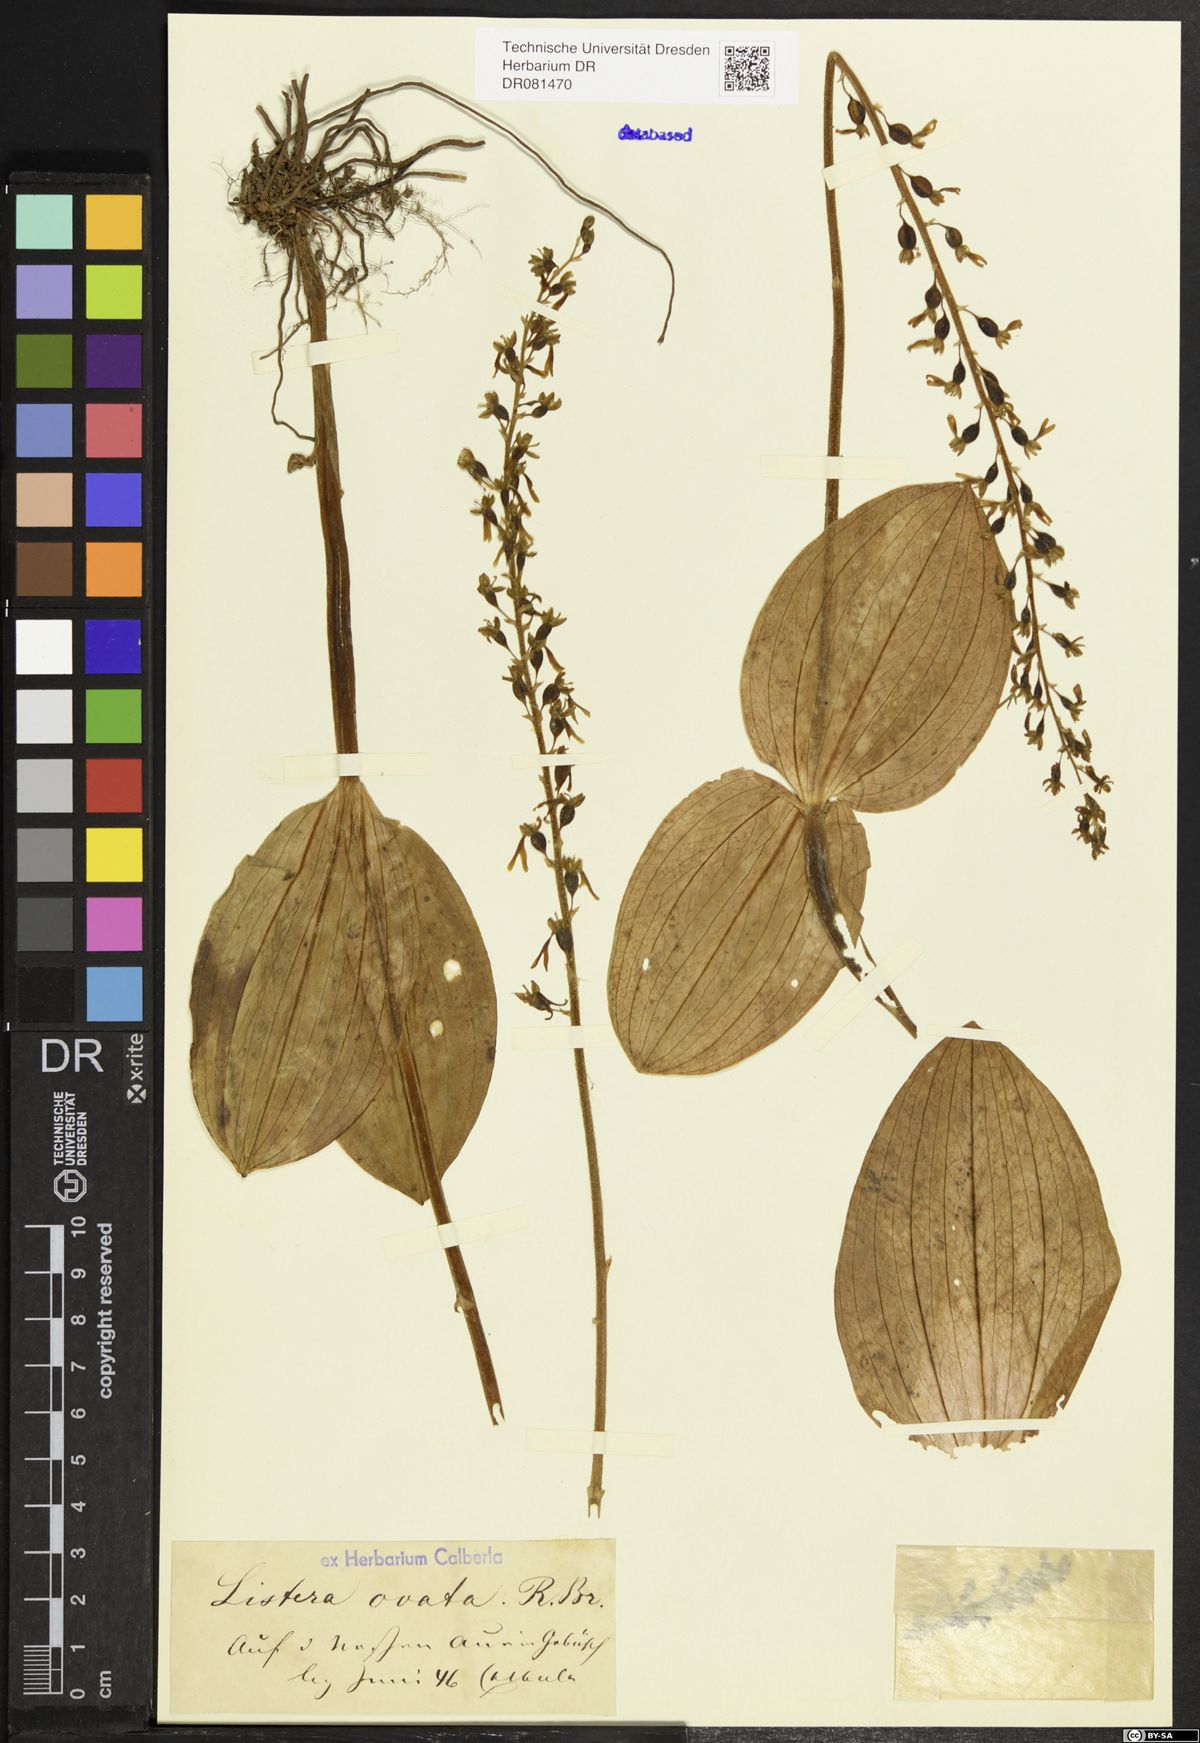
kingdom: Plantae
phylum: Tracheophyta
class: Liliopsida
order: Asparagales
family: Orchidaceae
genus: Neottia
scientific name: Neottia ovata
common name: Common twayblade
